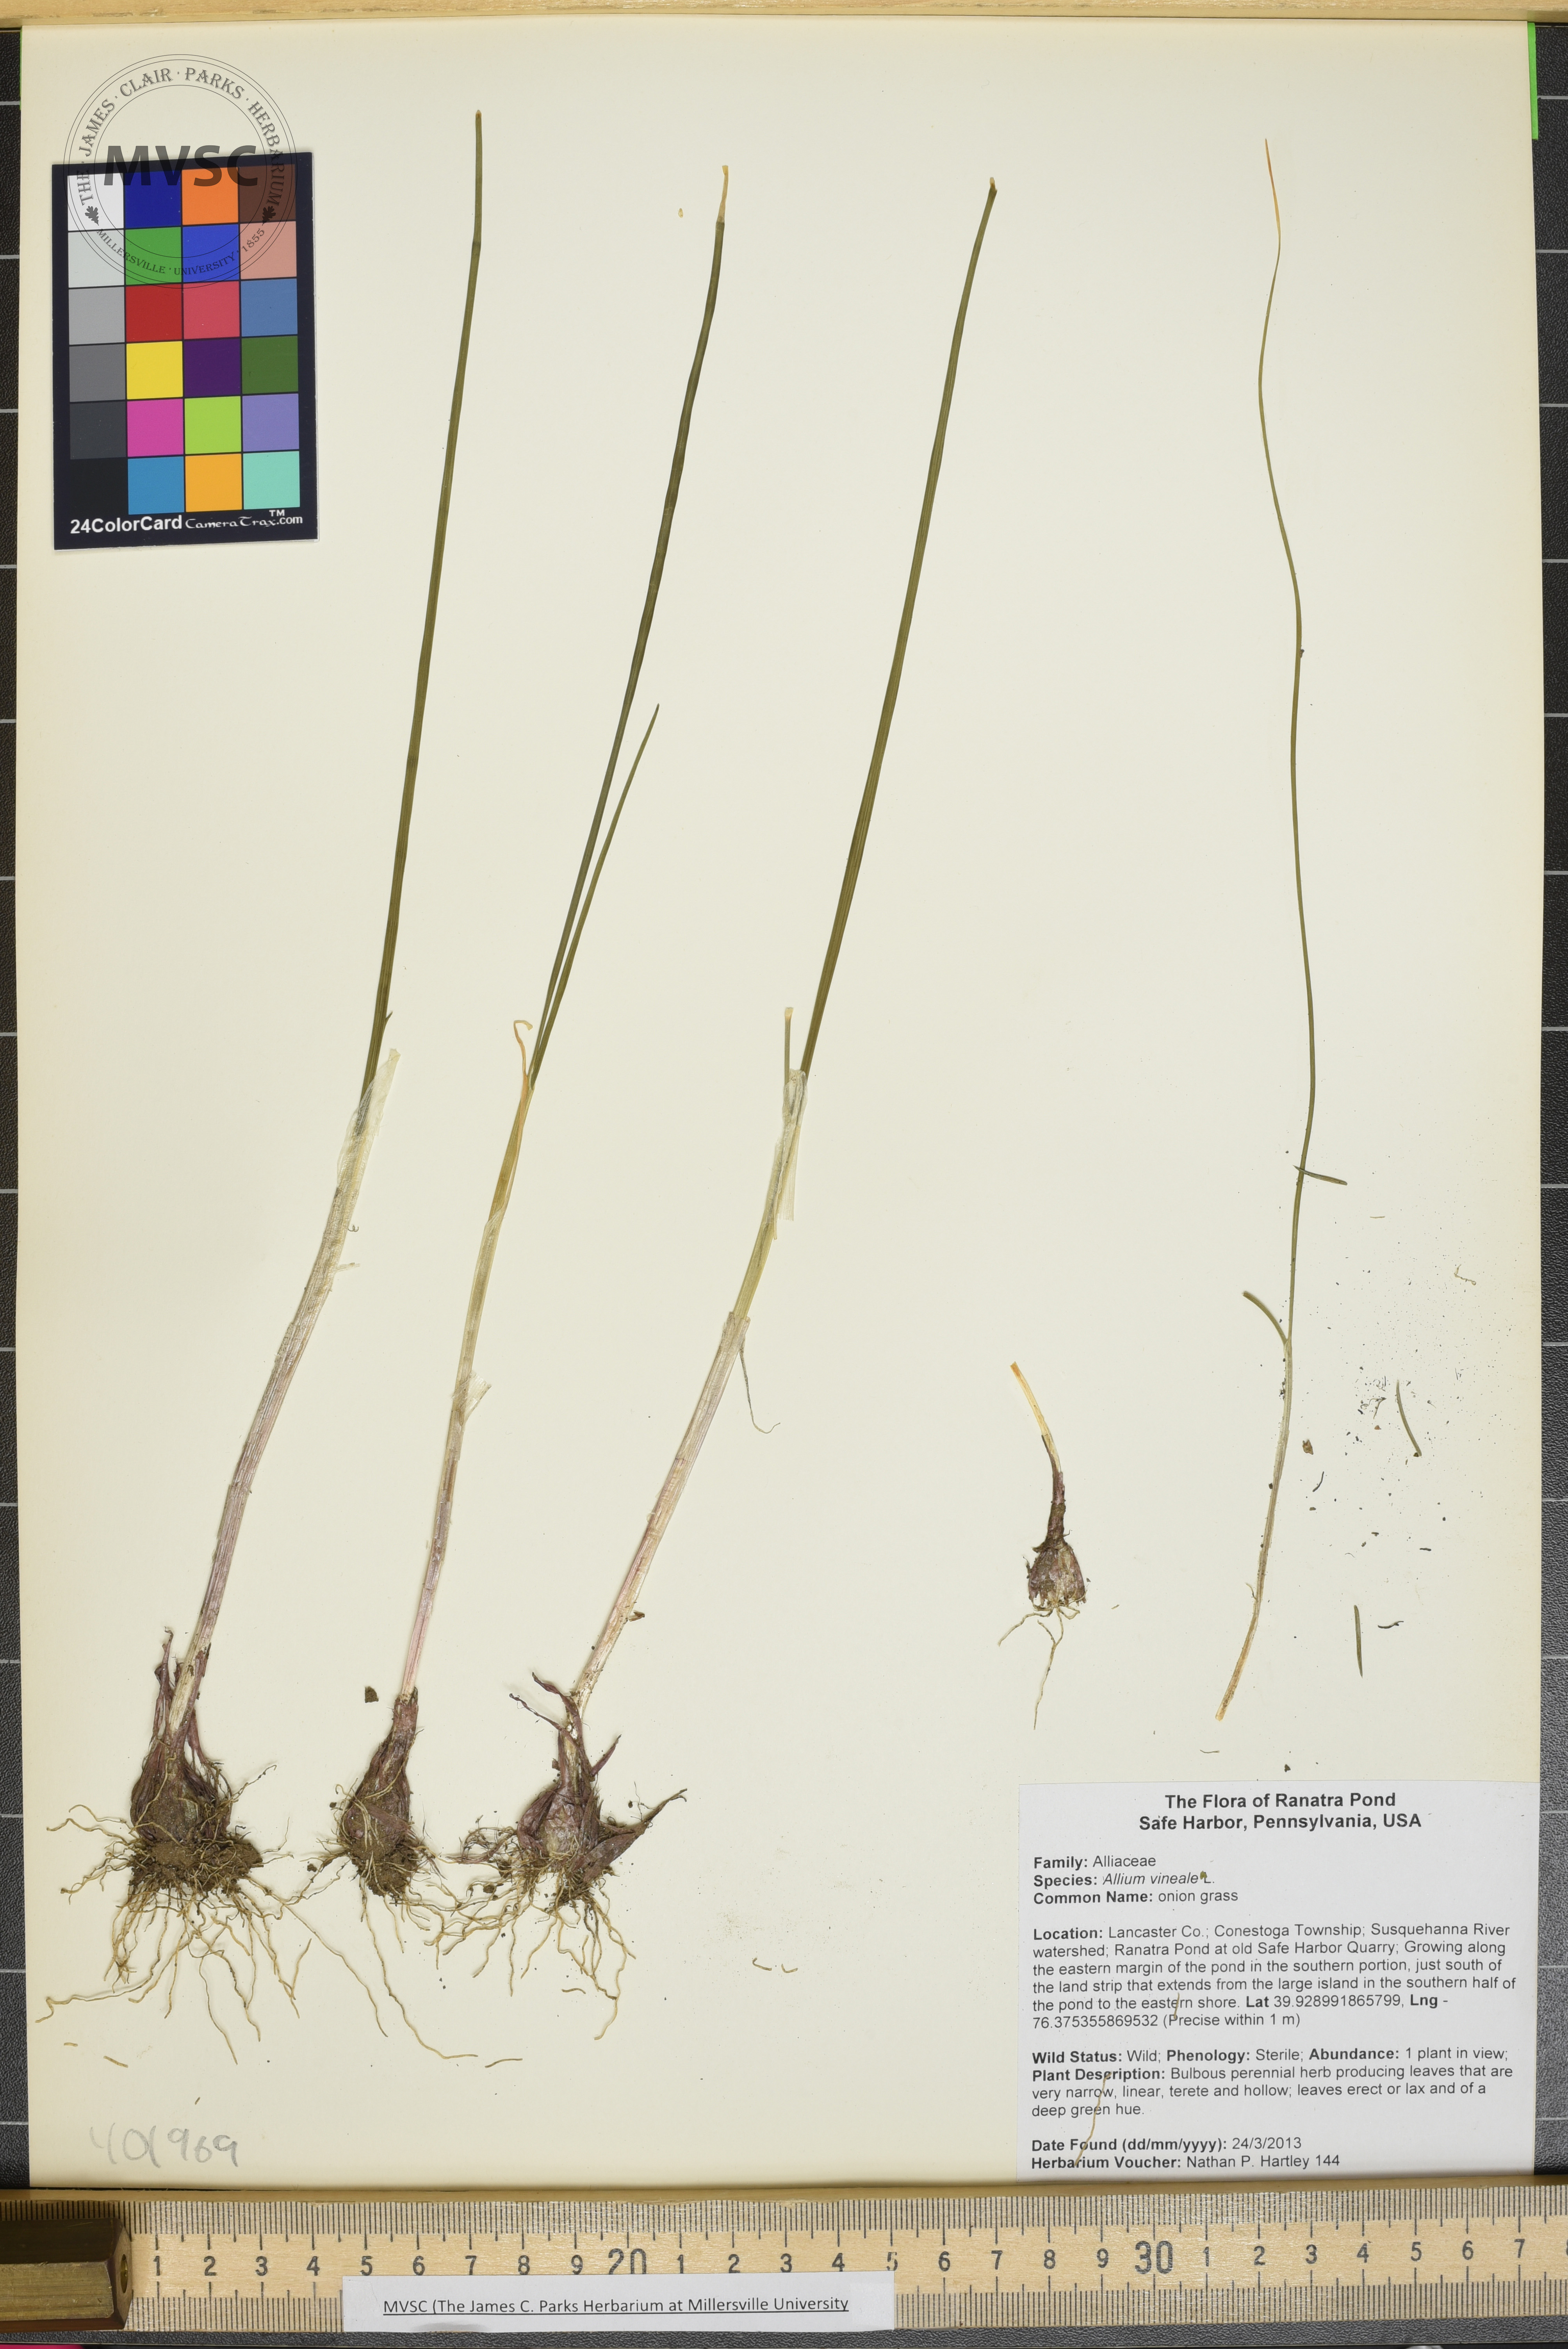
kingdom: Plantae
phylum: Tracheophyta
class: Liliopsida
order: Asparagales
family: Amaryllidaceae
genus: Allium
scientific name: Allium vineale
